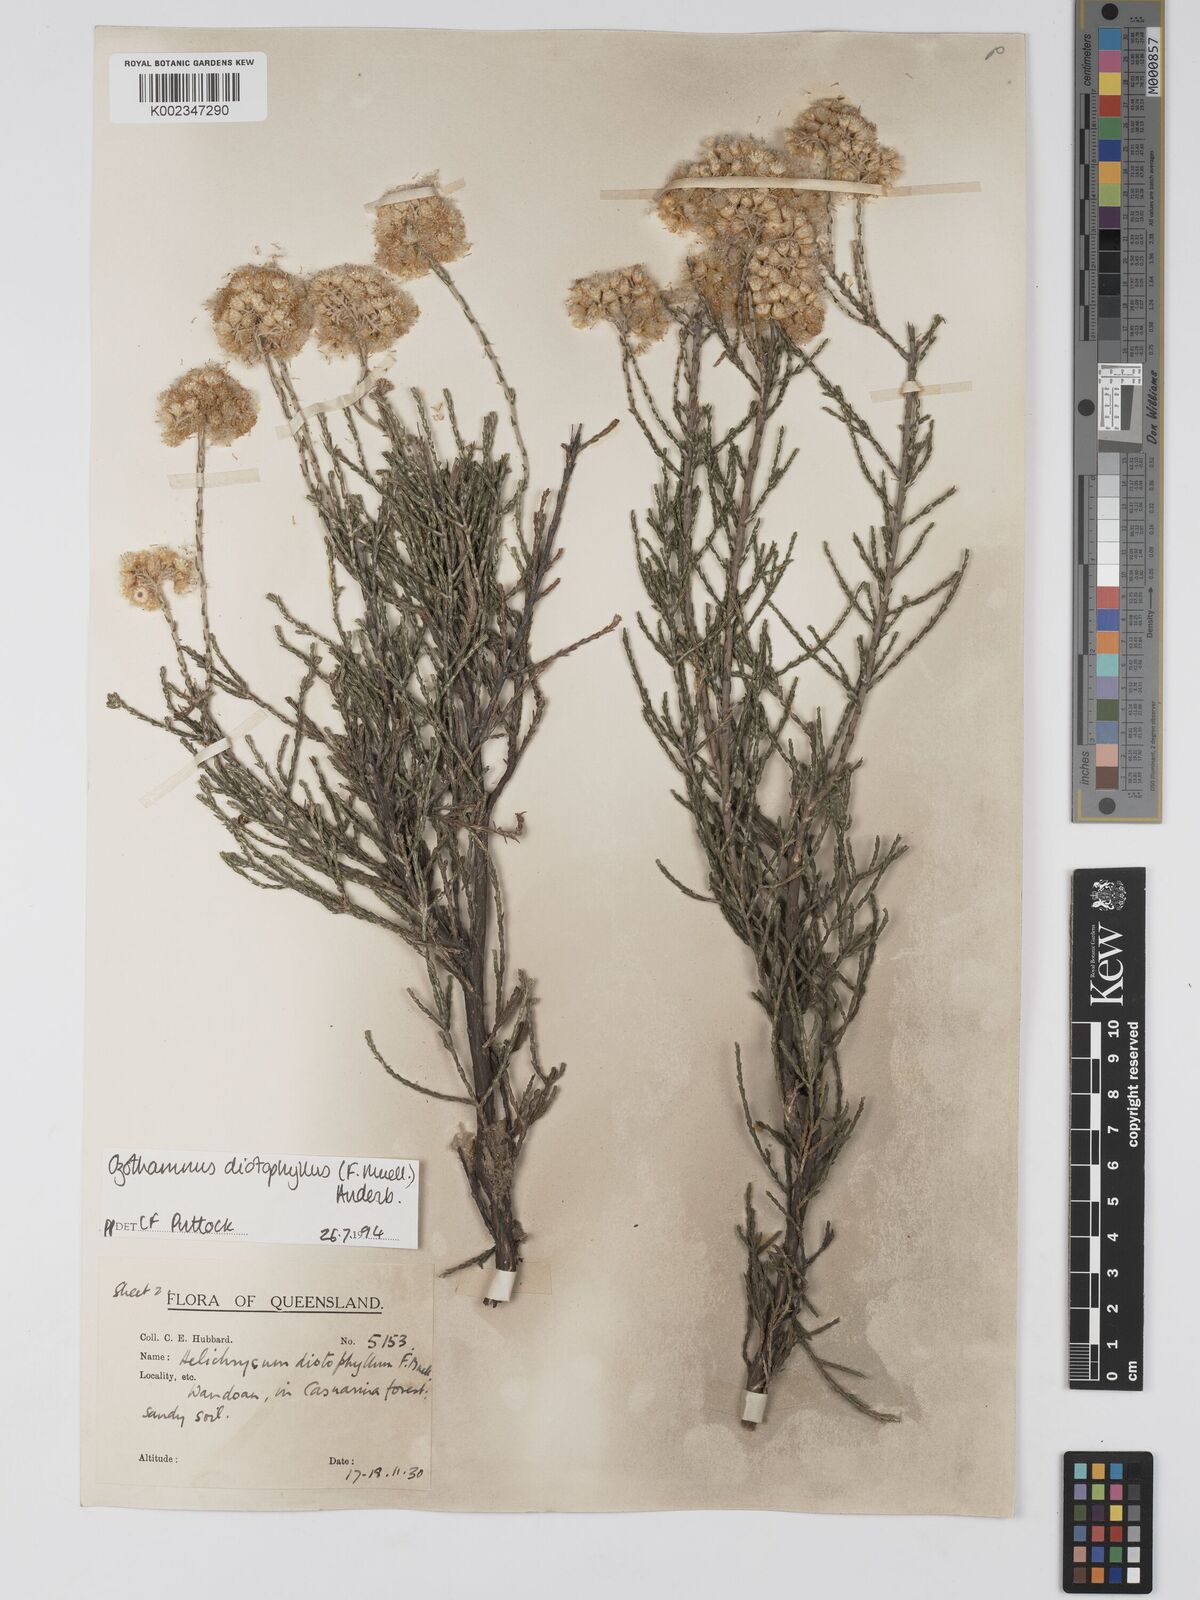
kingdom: Plantae
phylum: Tracheophyta
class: Magnoliopsida
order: Asterales
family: Asteraceae
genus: Ozothamnus
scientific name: Ozothamnus diotophyllus
